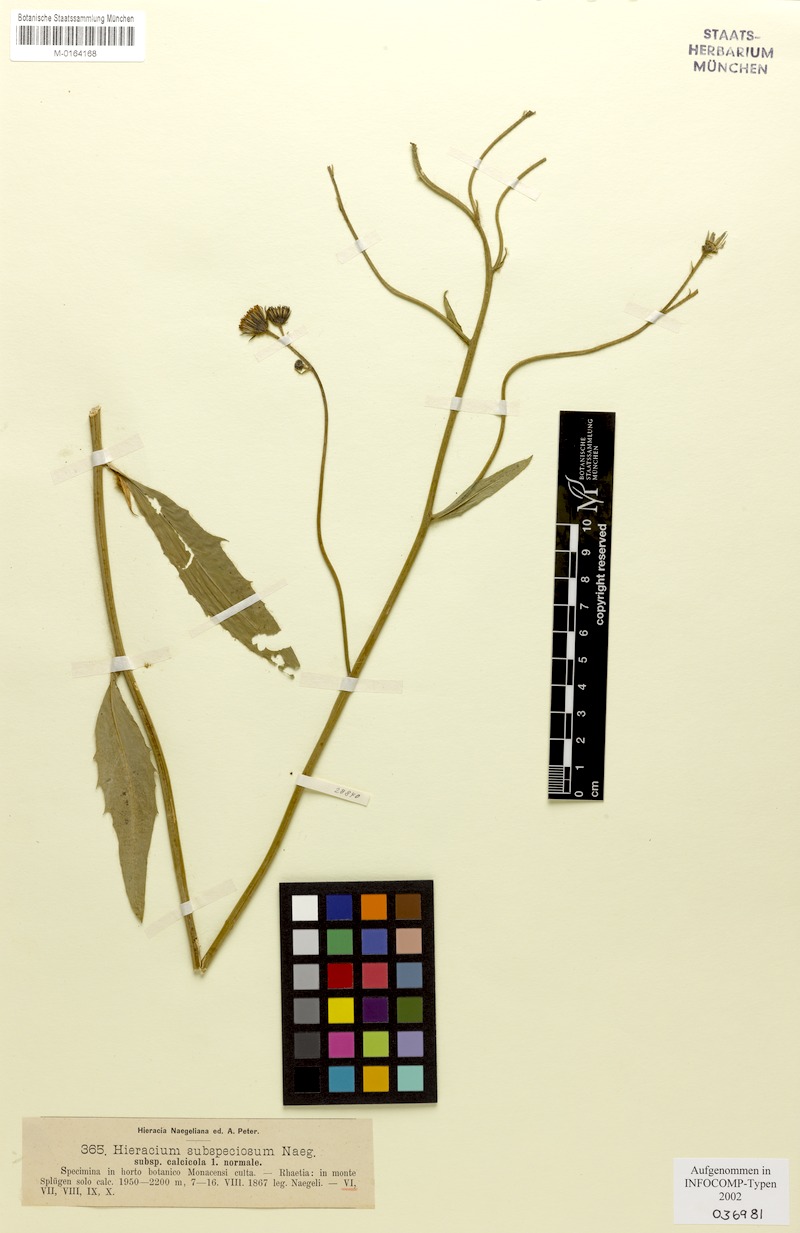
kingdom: Plantae
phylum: Tracheophyta
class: Magnoliopsida
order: Asterales
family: Asteraceae
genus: Hieracium
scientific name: Hieracium subspeciosum
